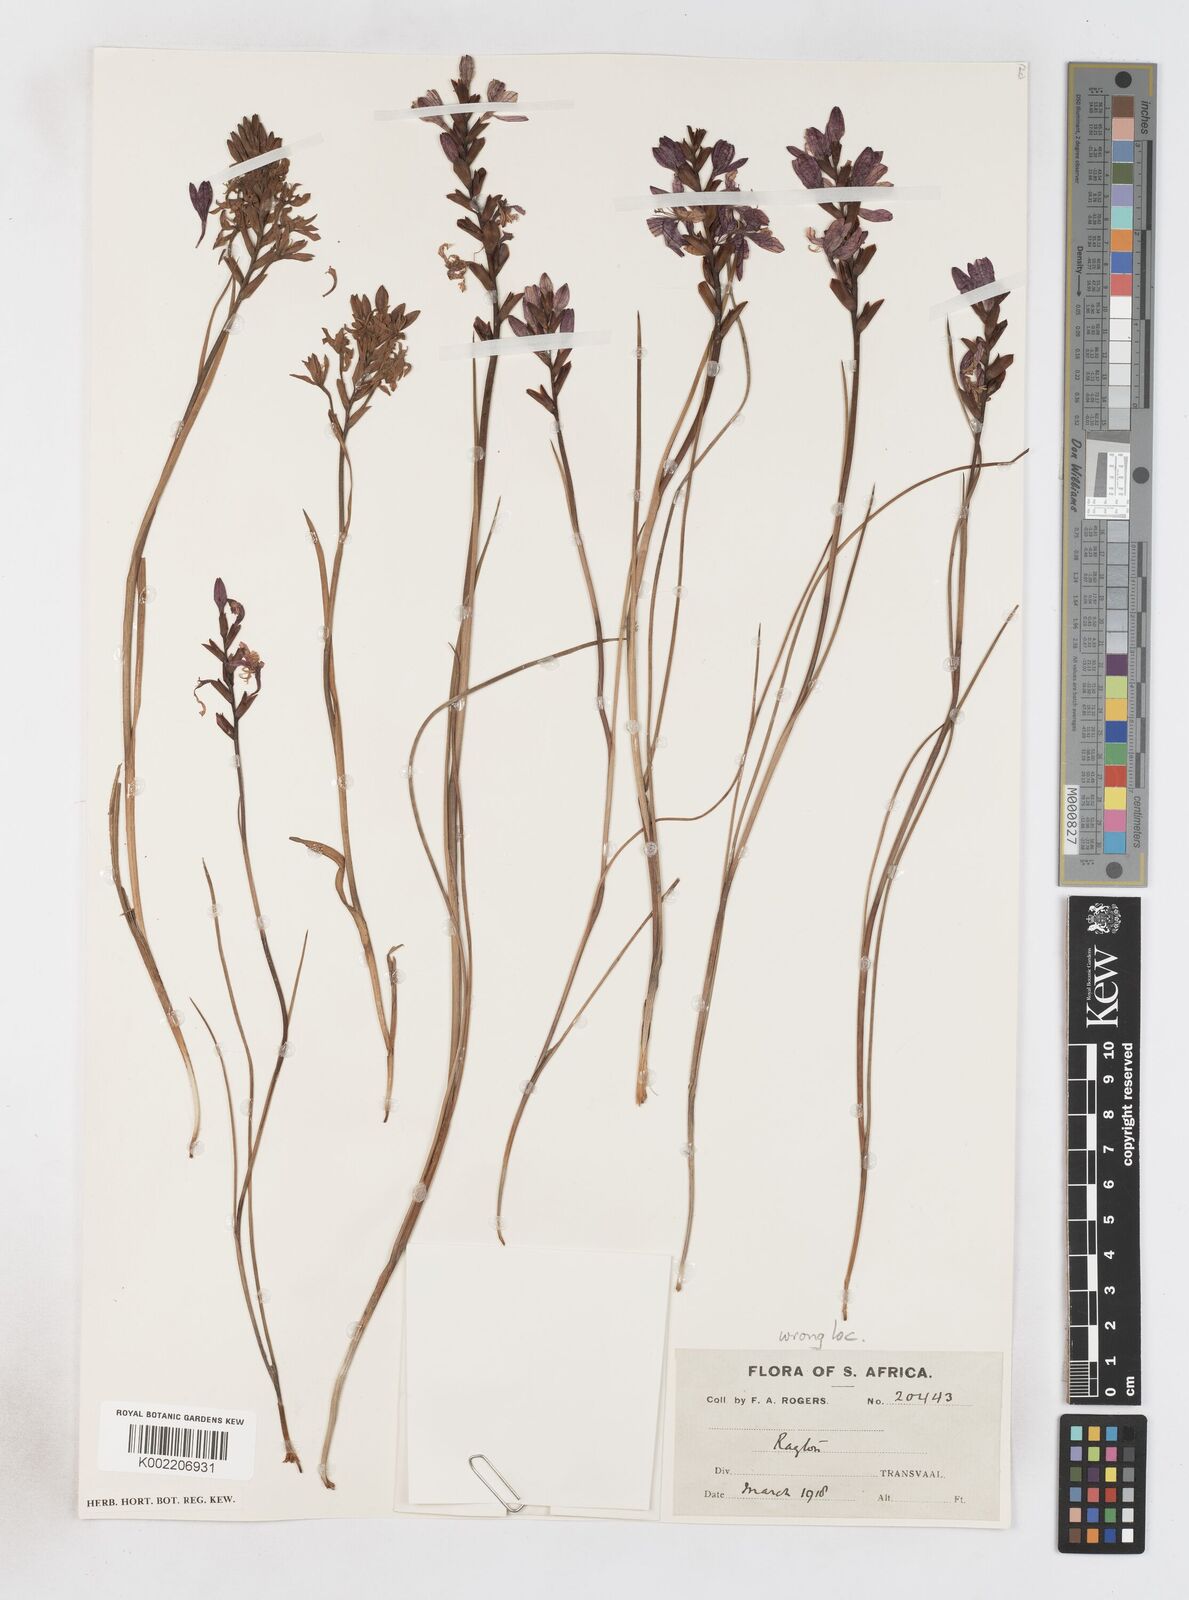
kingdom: Plantae
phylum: Tracheophyta
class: Liliopsida
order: Asparagales
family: Iridaceae
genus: Thereianthus
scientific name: Thereianthus spicatus
